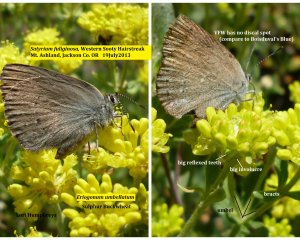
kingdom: Animalia
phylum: Arthropoda
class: Insecta
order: Lepidoptera
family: Lycaenidae
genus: Satyrium
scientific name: Satyrium fuliginosa
